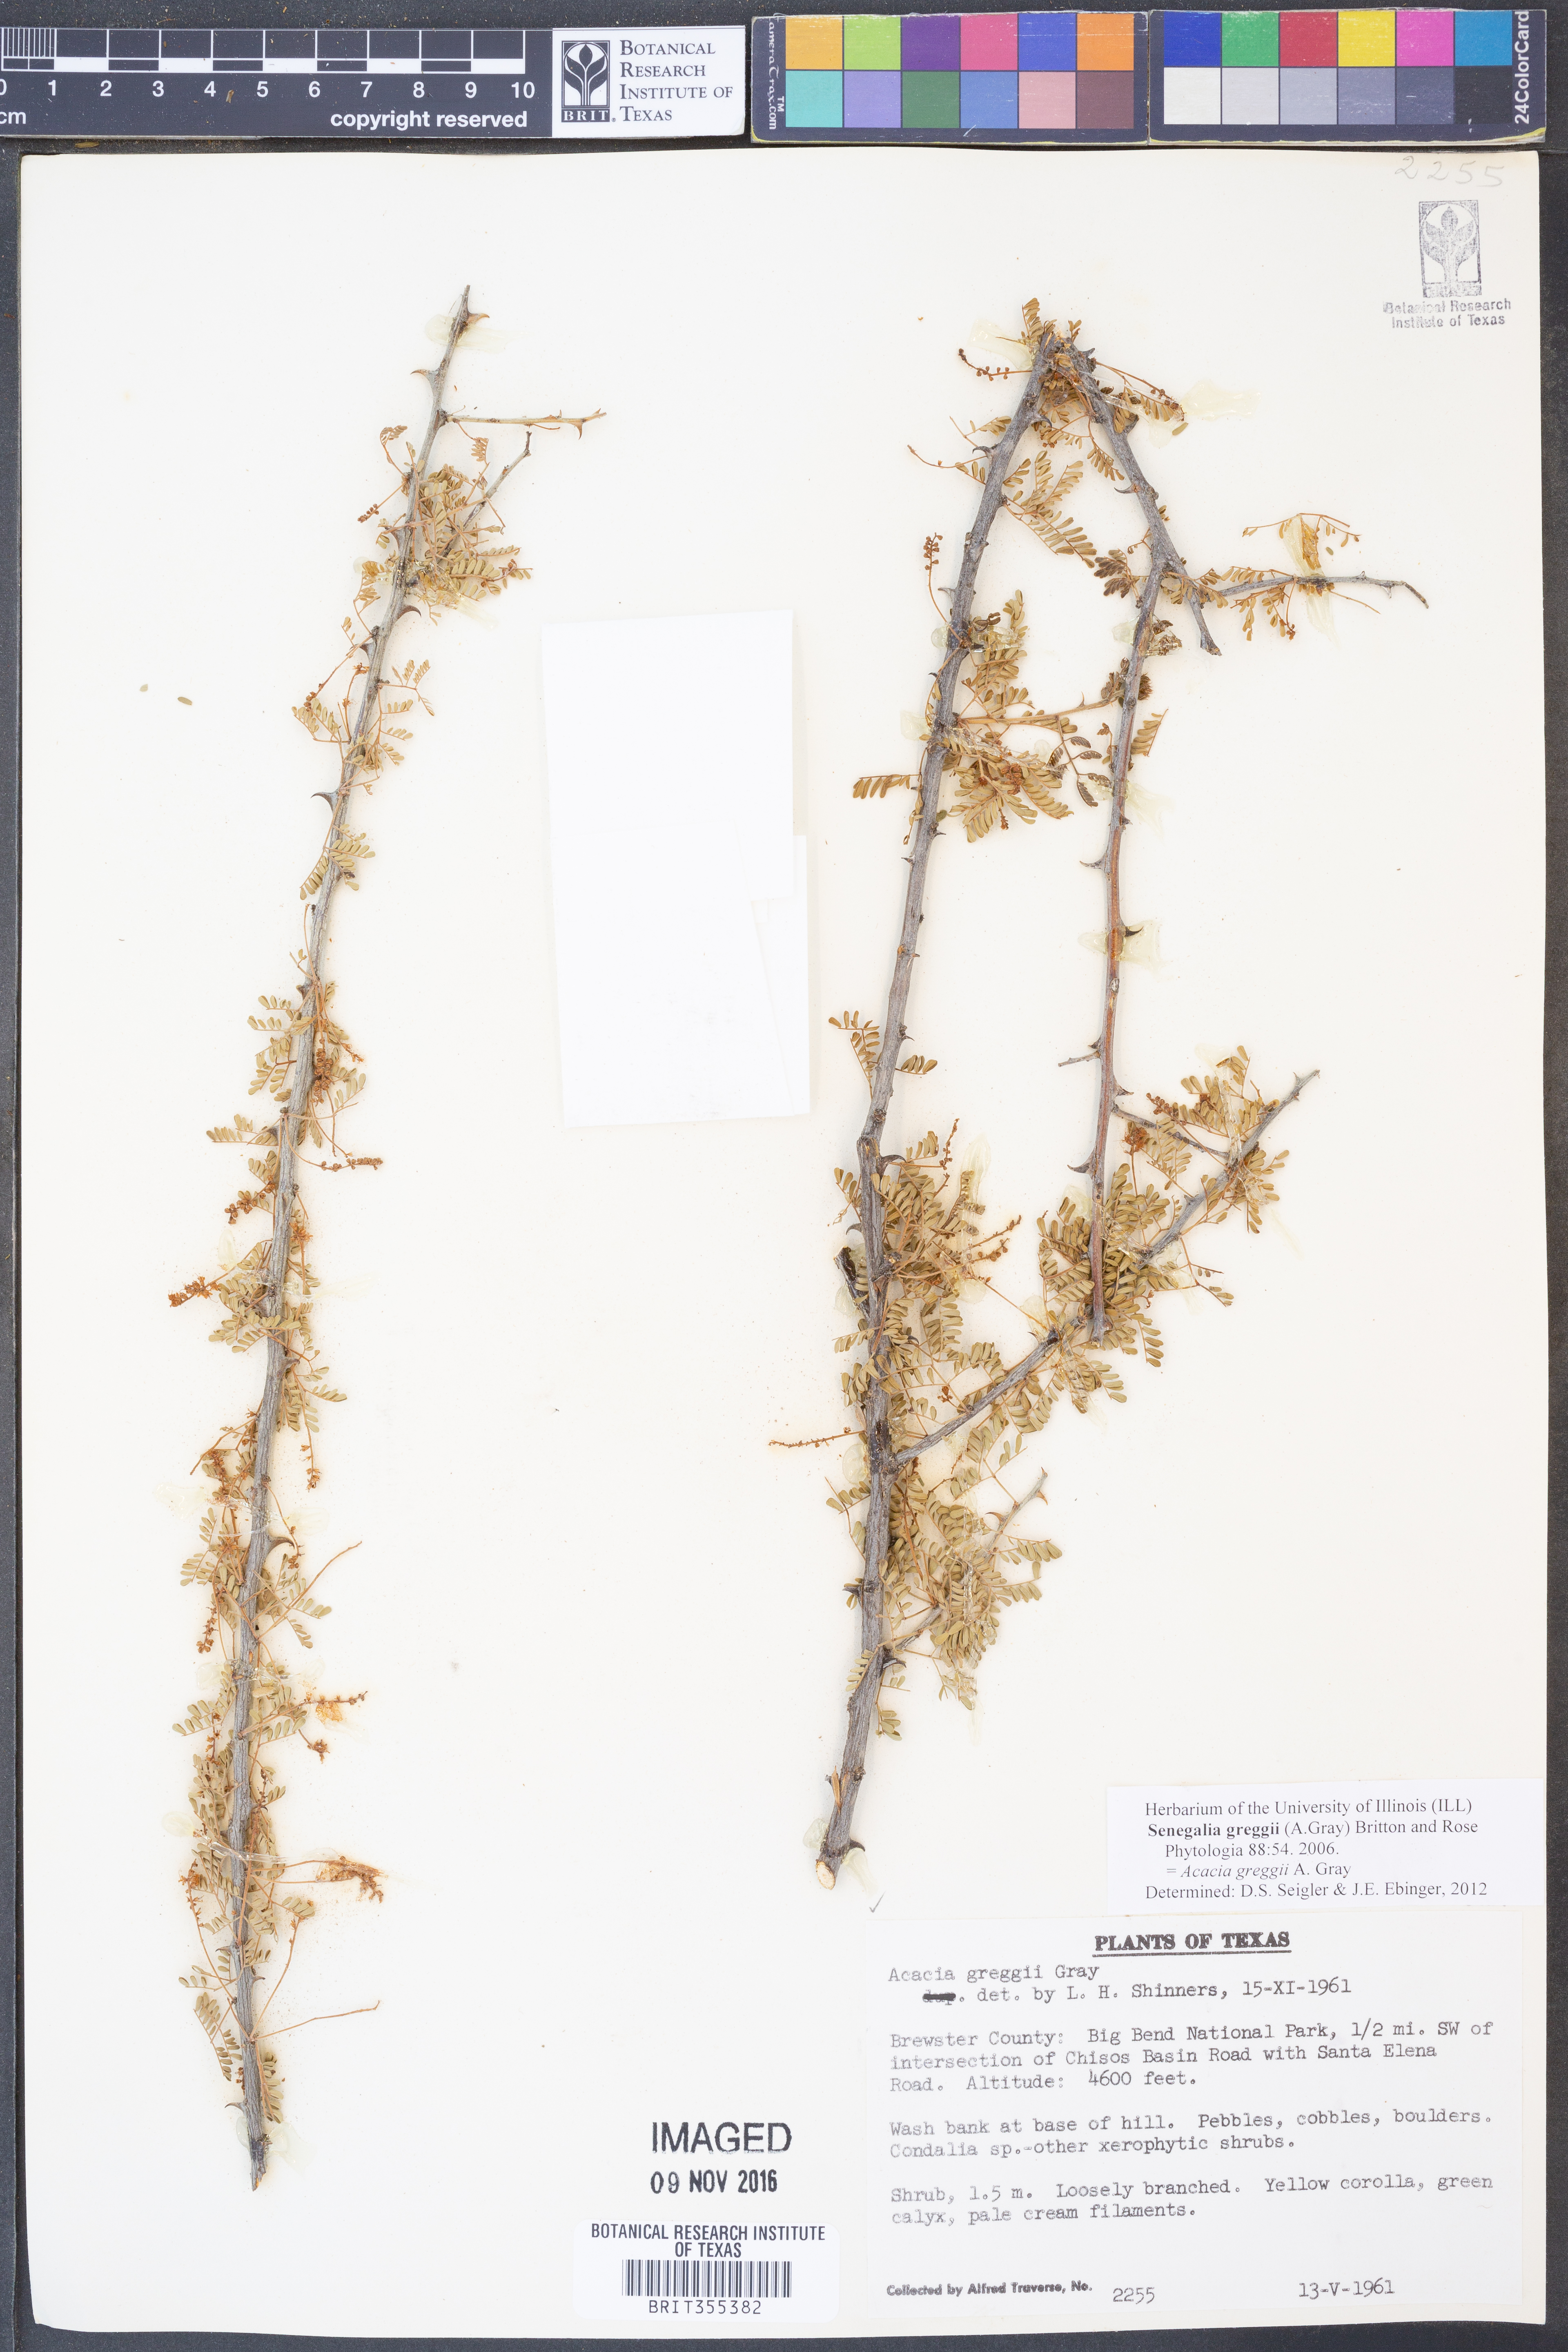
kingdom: Plantae
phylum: Tracheophyta
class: Magnoliopsida
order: Fabales
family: Fabaceae
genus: Senegalia
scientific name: Senegalia greggii
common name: Texas-mimosa
